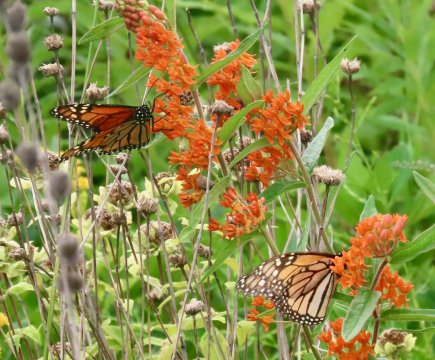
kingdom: Animalia
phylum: Arthropoda
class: Insecta
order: Lepidoptera
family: Nymphalidae
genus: Danaus
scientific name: Danaus plexippus
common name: Monarch
